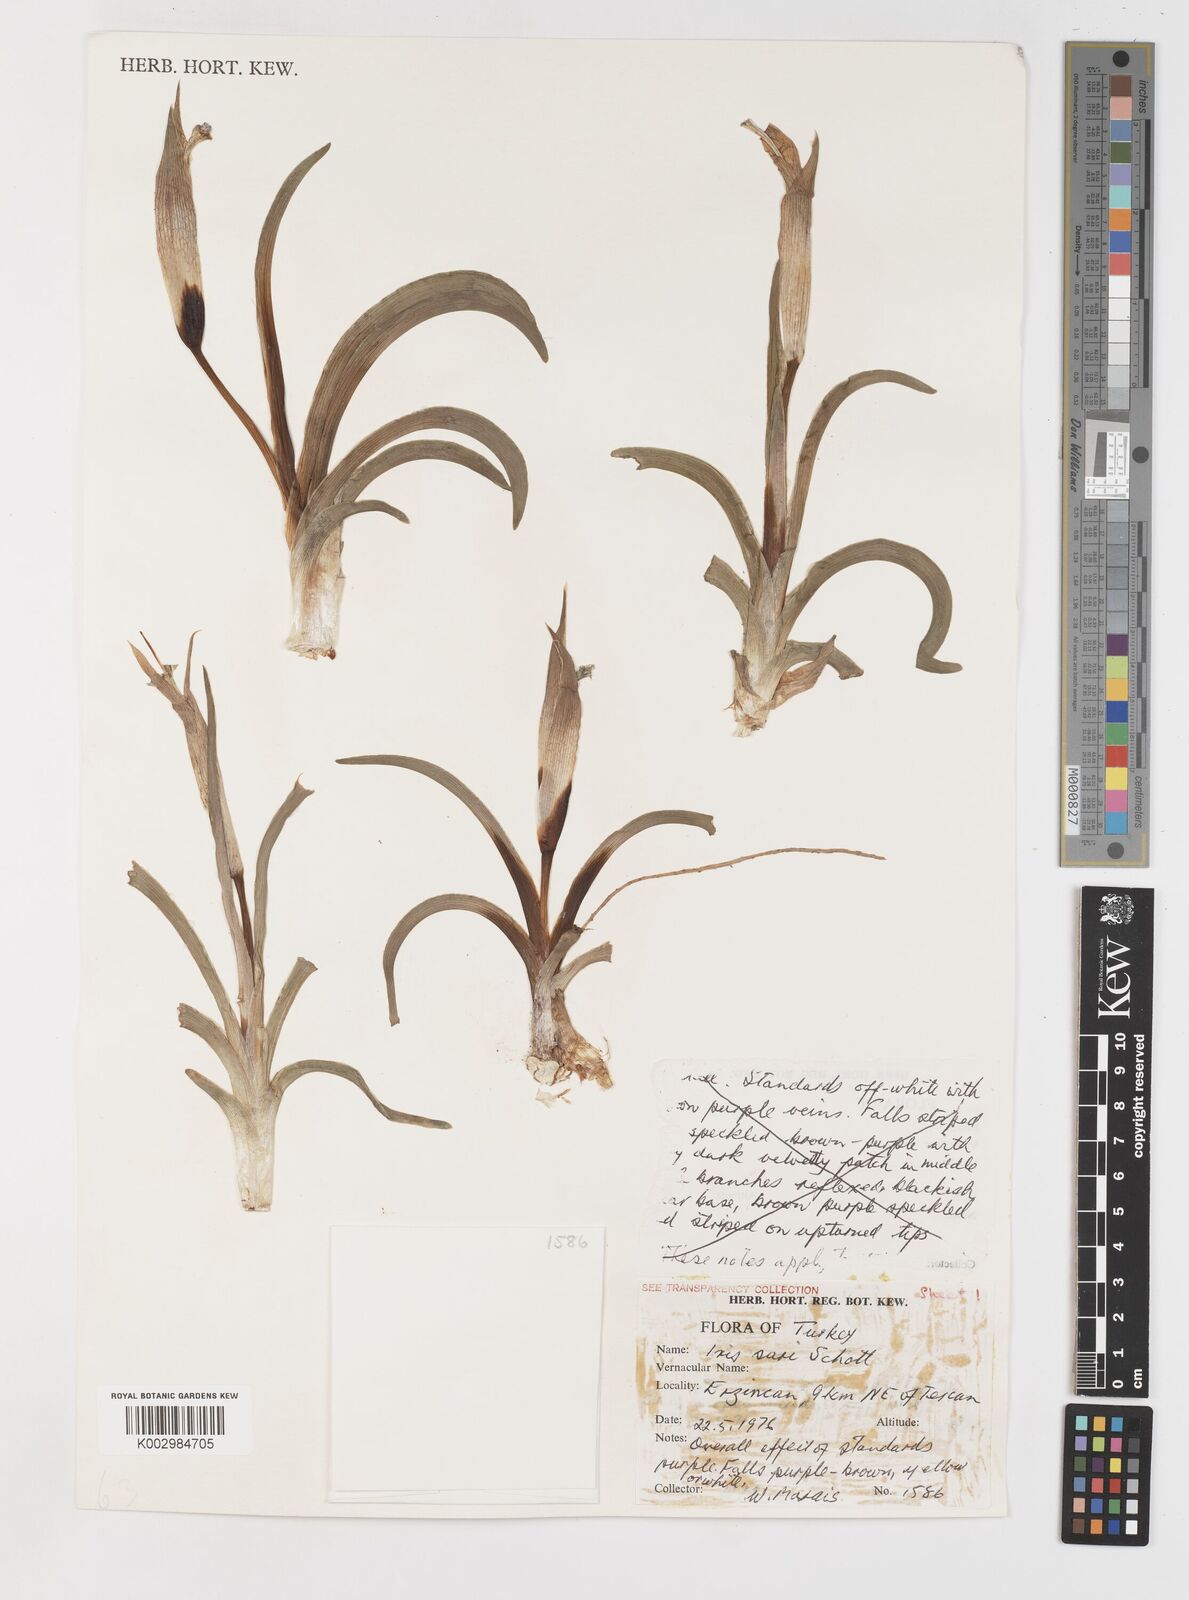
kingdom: Plantae
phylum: Tracheophyta
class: Liliopsida
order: Asparagales
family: Iridaceae
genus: Iris
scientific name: Iris sari
